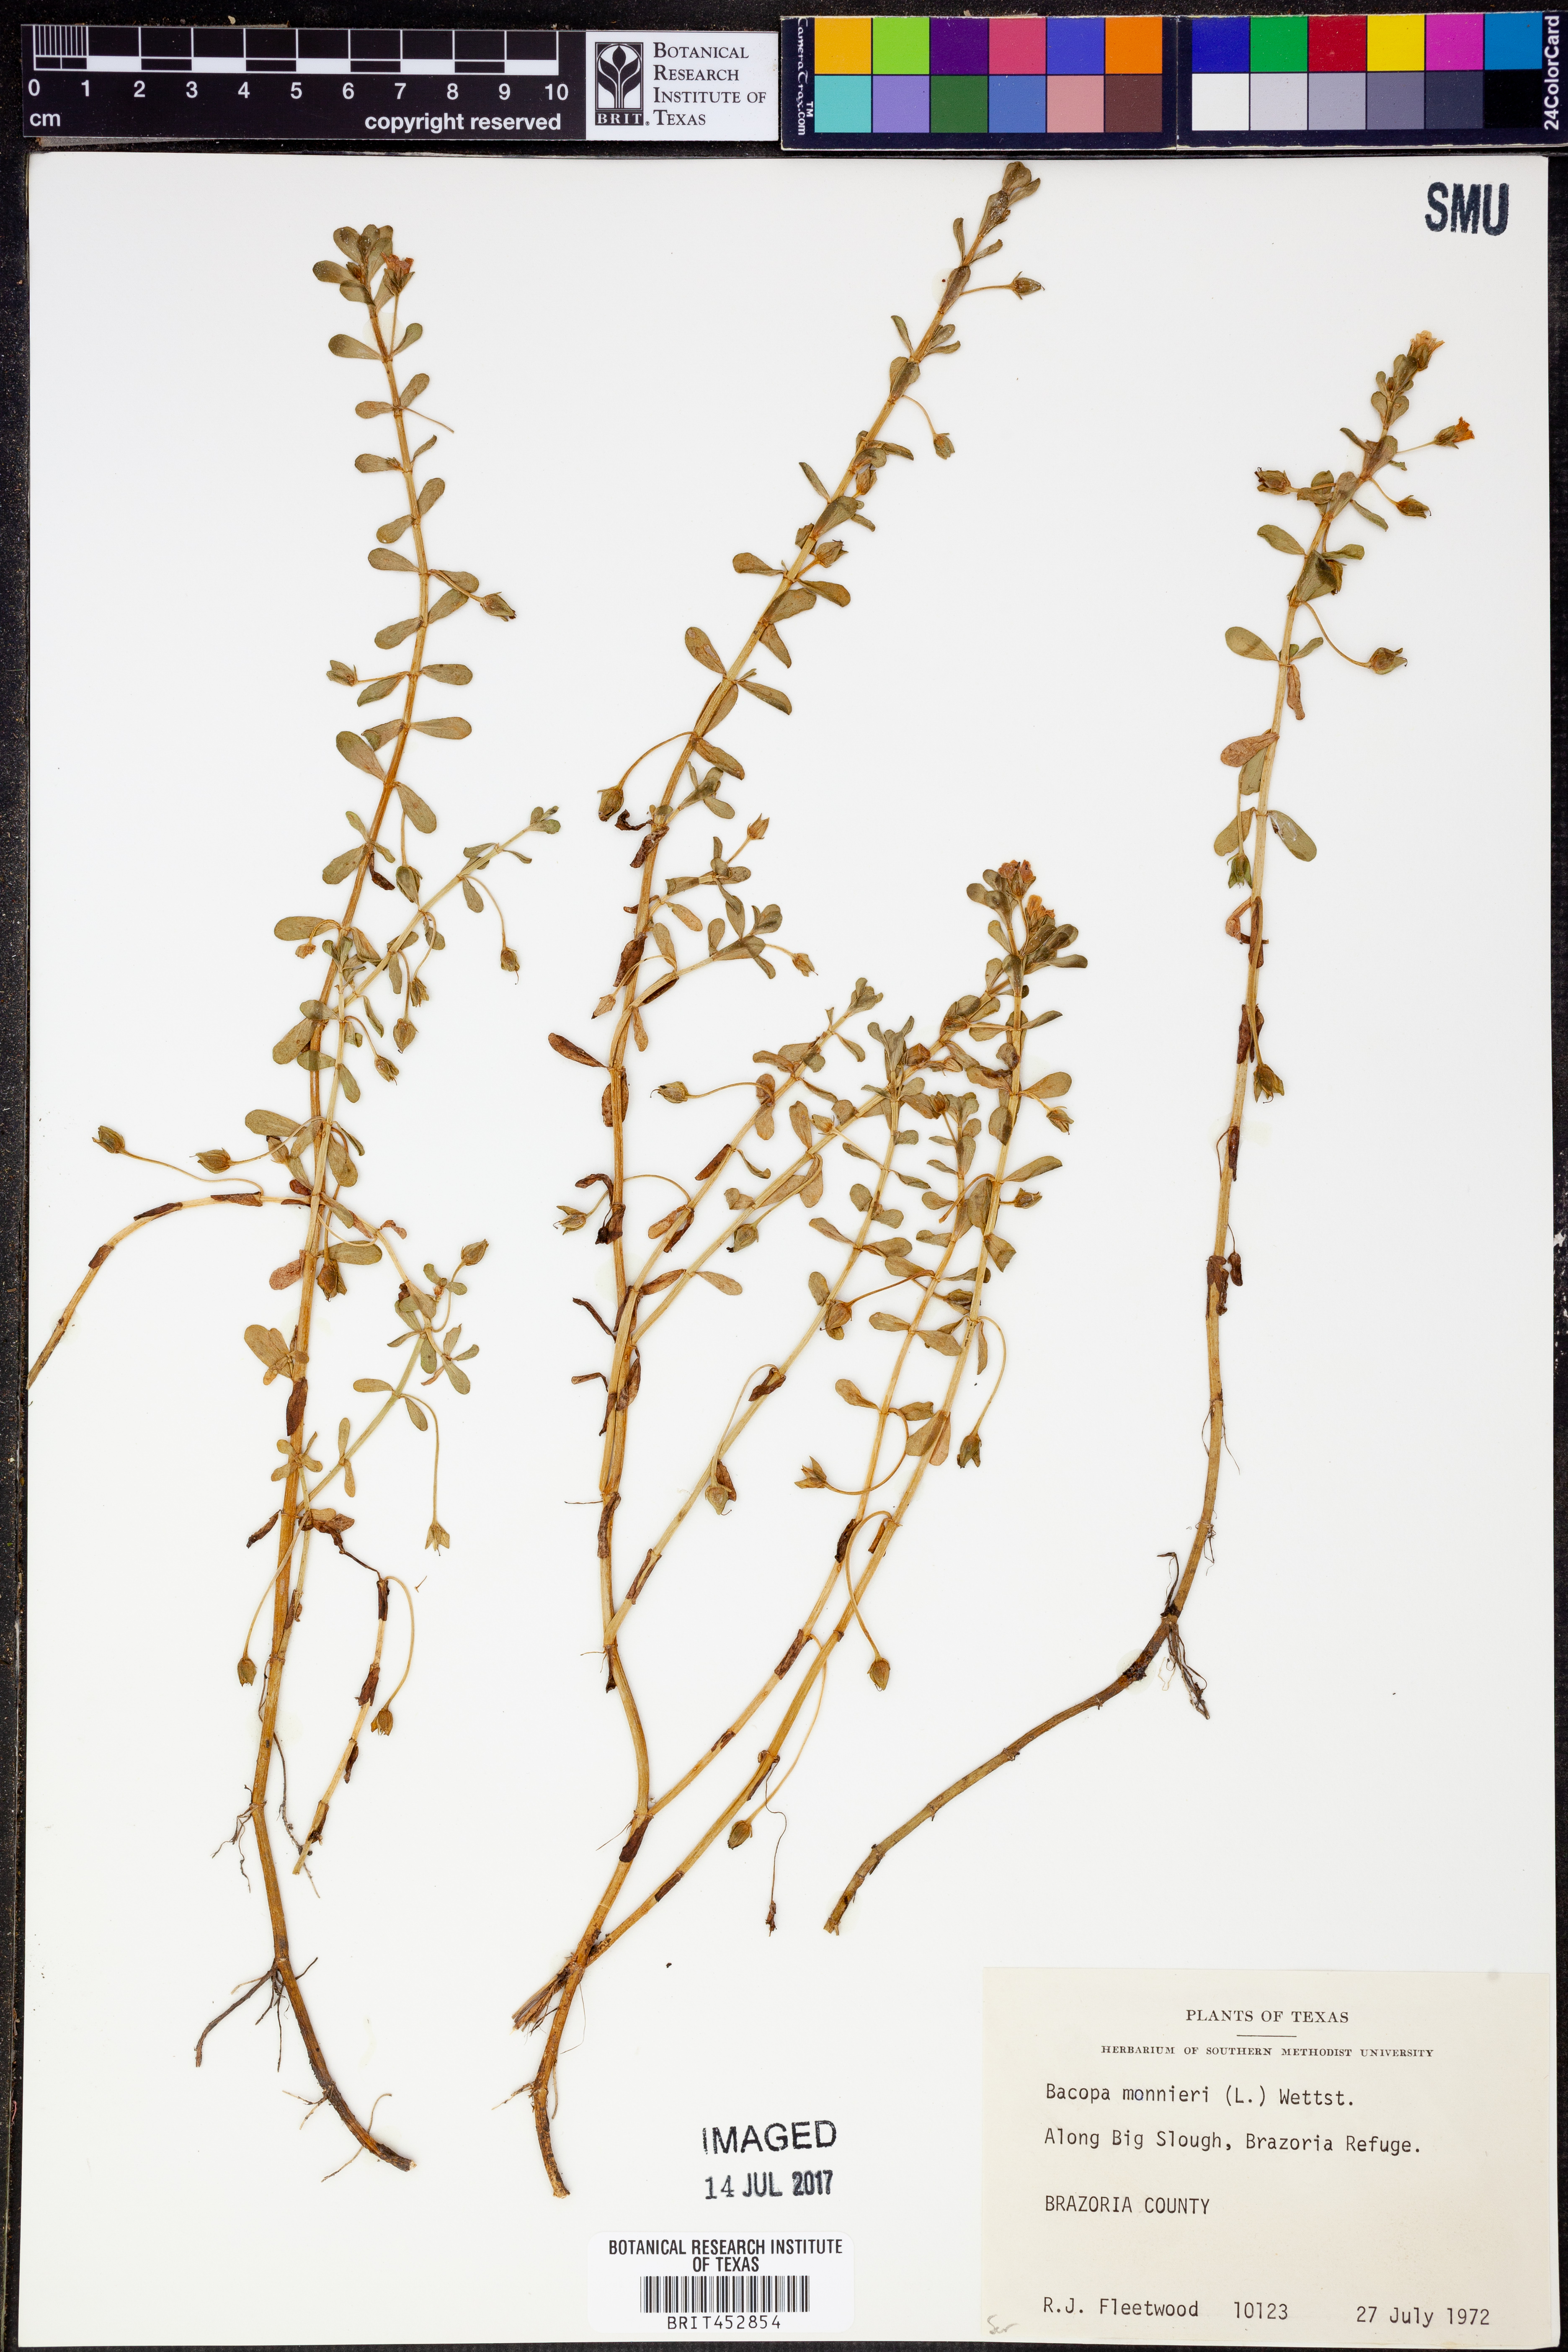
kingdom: Plantae
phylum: Tracheophyta
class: Magnoliopsida
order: Lamiales
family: Plantaginaceae
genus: Bacopa
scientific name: Bacopa monnieri
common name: Indian-pennywort
